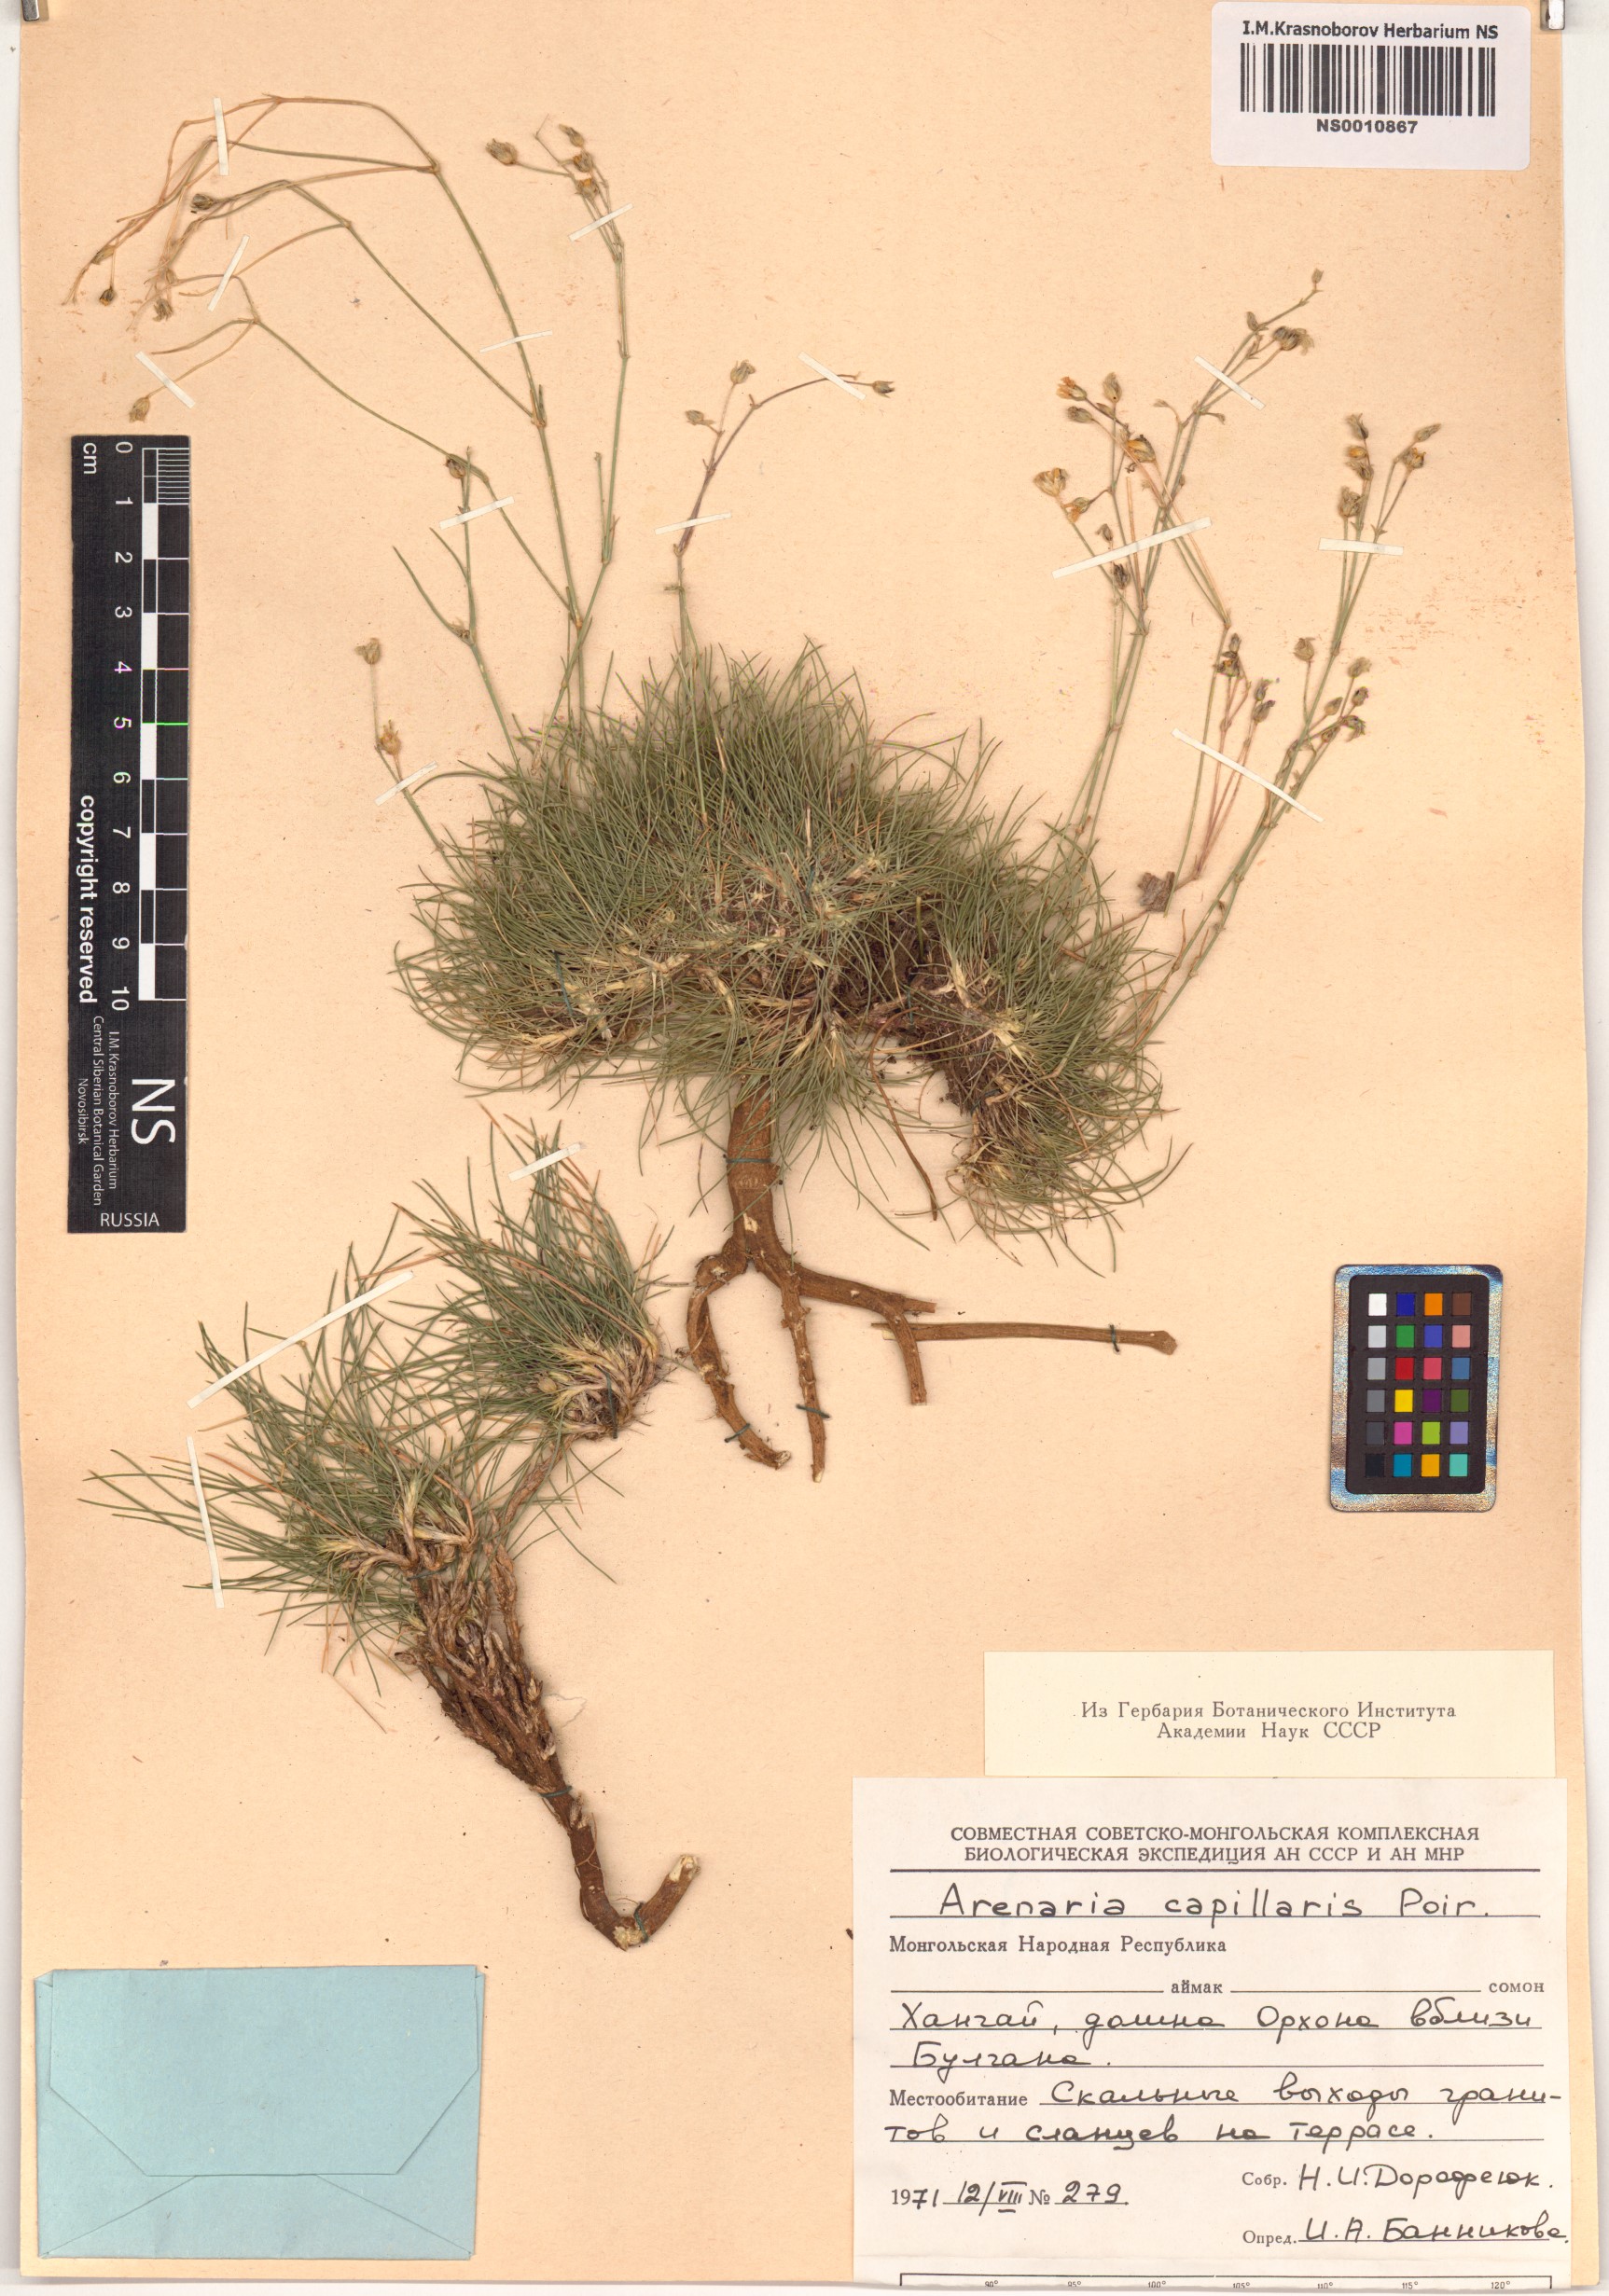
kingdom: Plantae
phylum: Tracheophyta
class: Magnoliopsida
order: Caryophyllales
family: Caryophyllaceae
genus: Eremogone
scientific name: Eremogone capillaris
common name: Slender mountain sandwort
